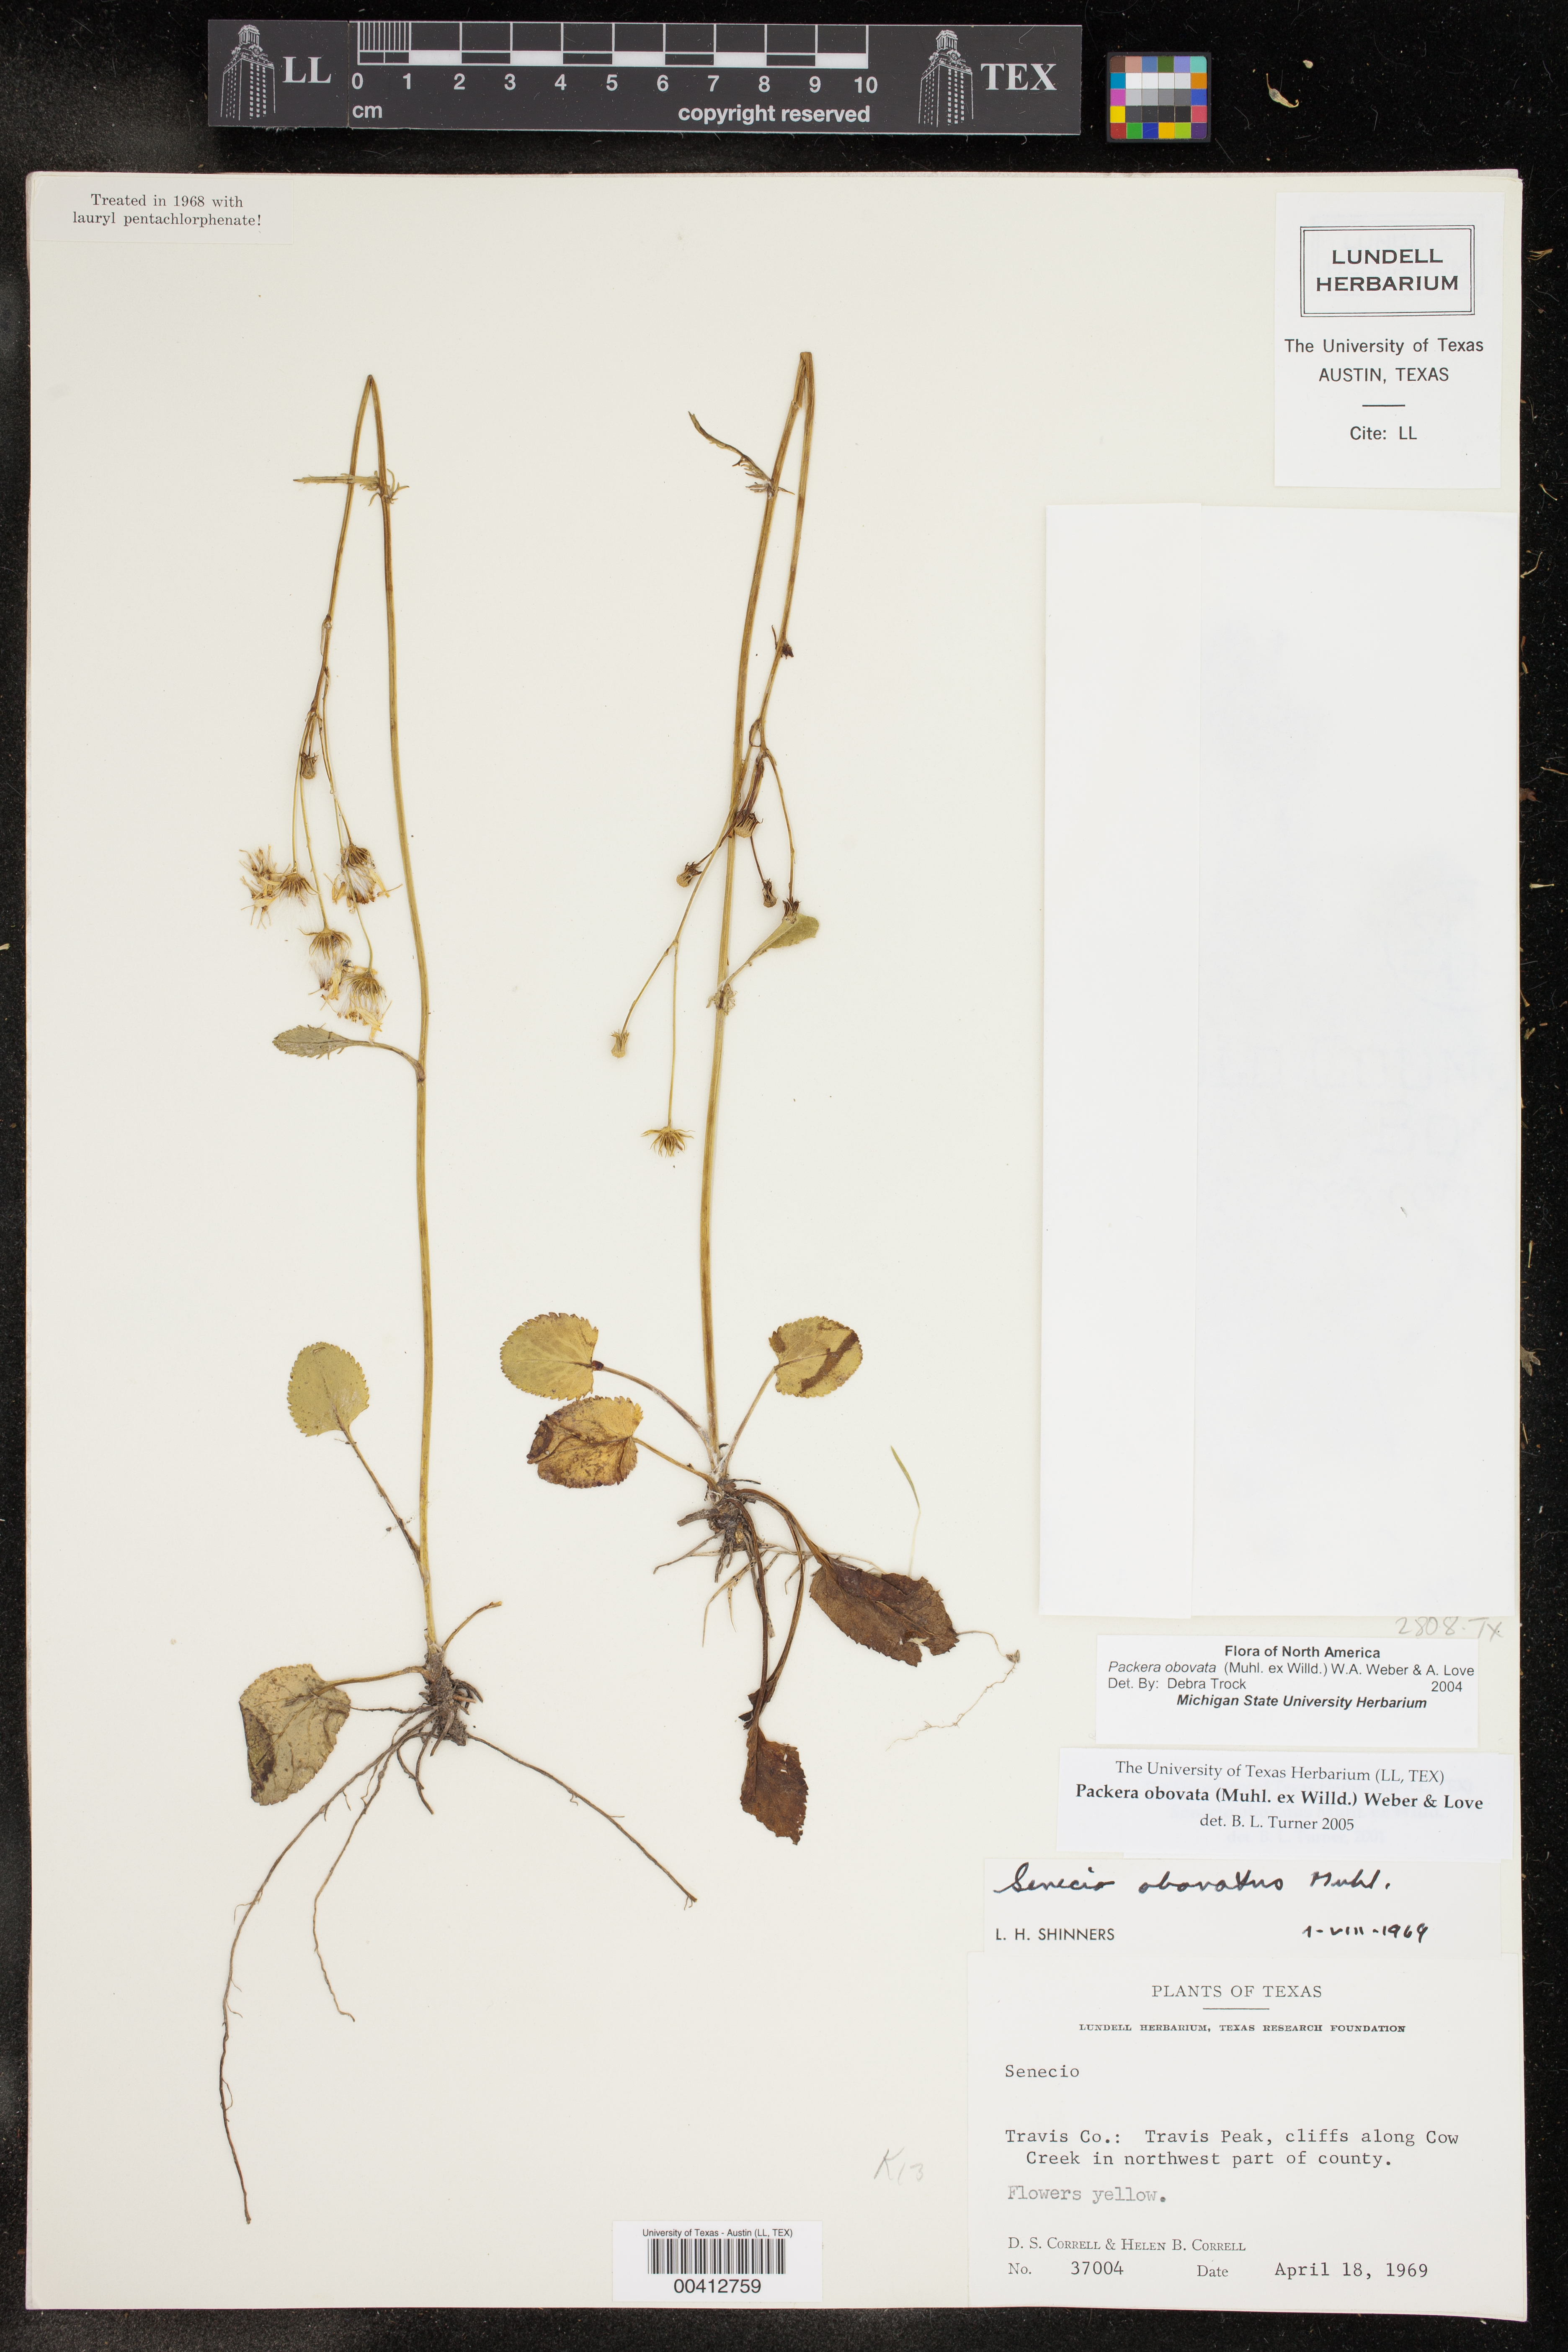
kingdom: Plantae
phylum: Tracheophyta
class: Magnoliopsida
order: Asterales
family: Asteraceae
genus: Packera
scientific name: Packera obovata
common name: Round-leaf ragwort
